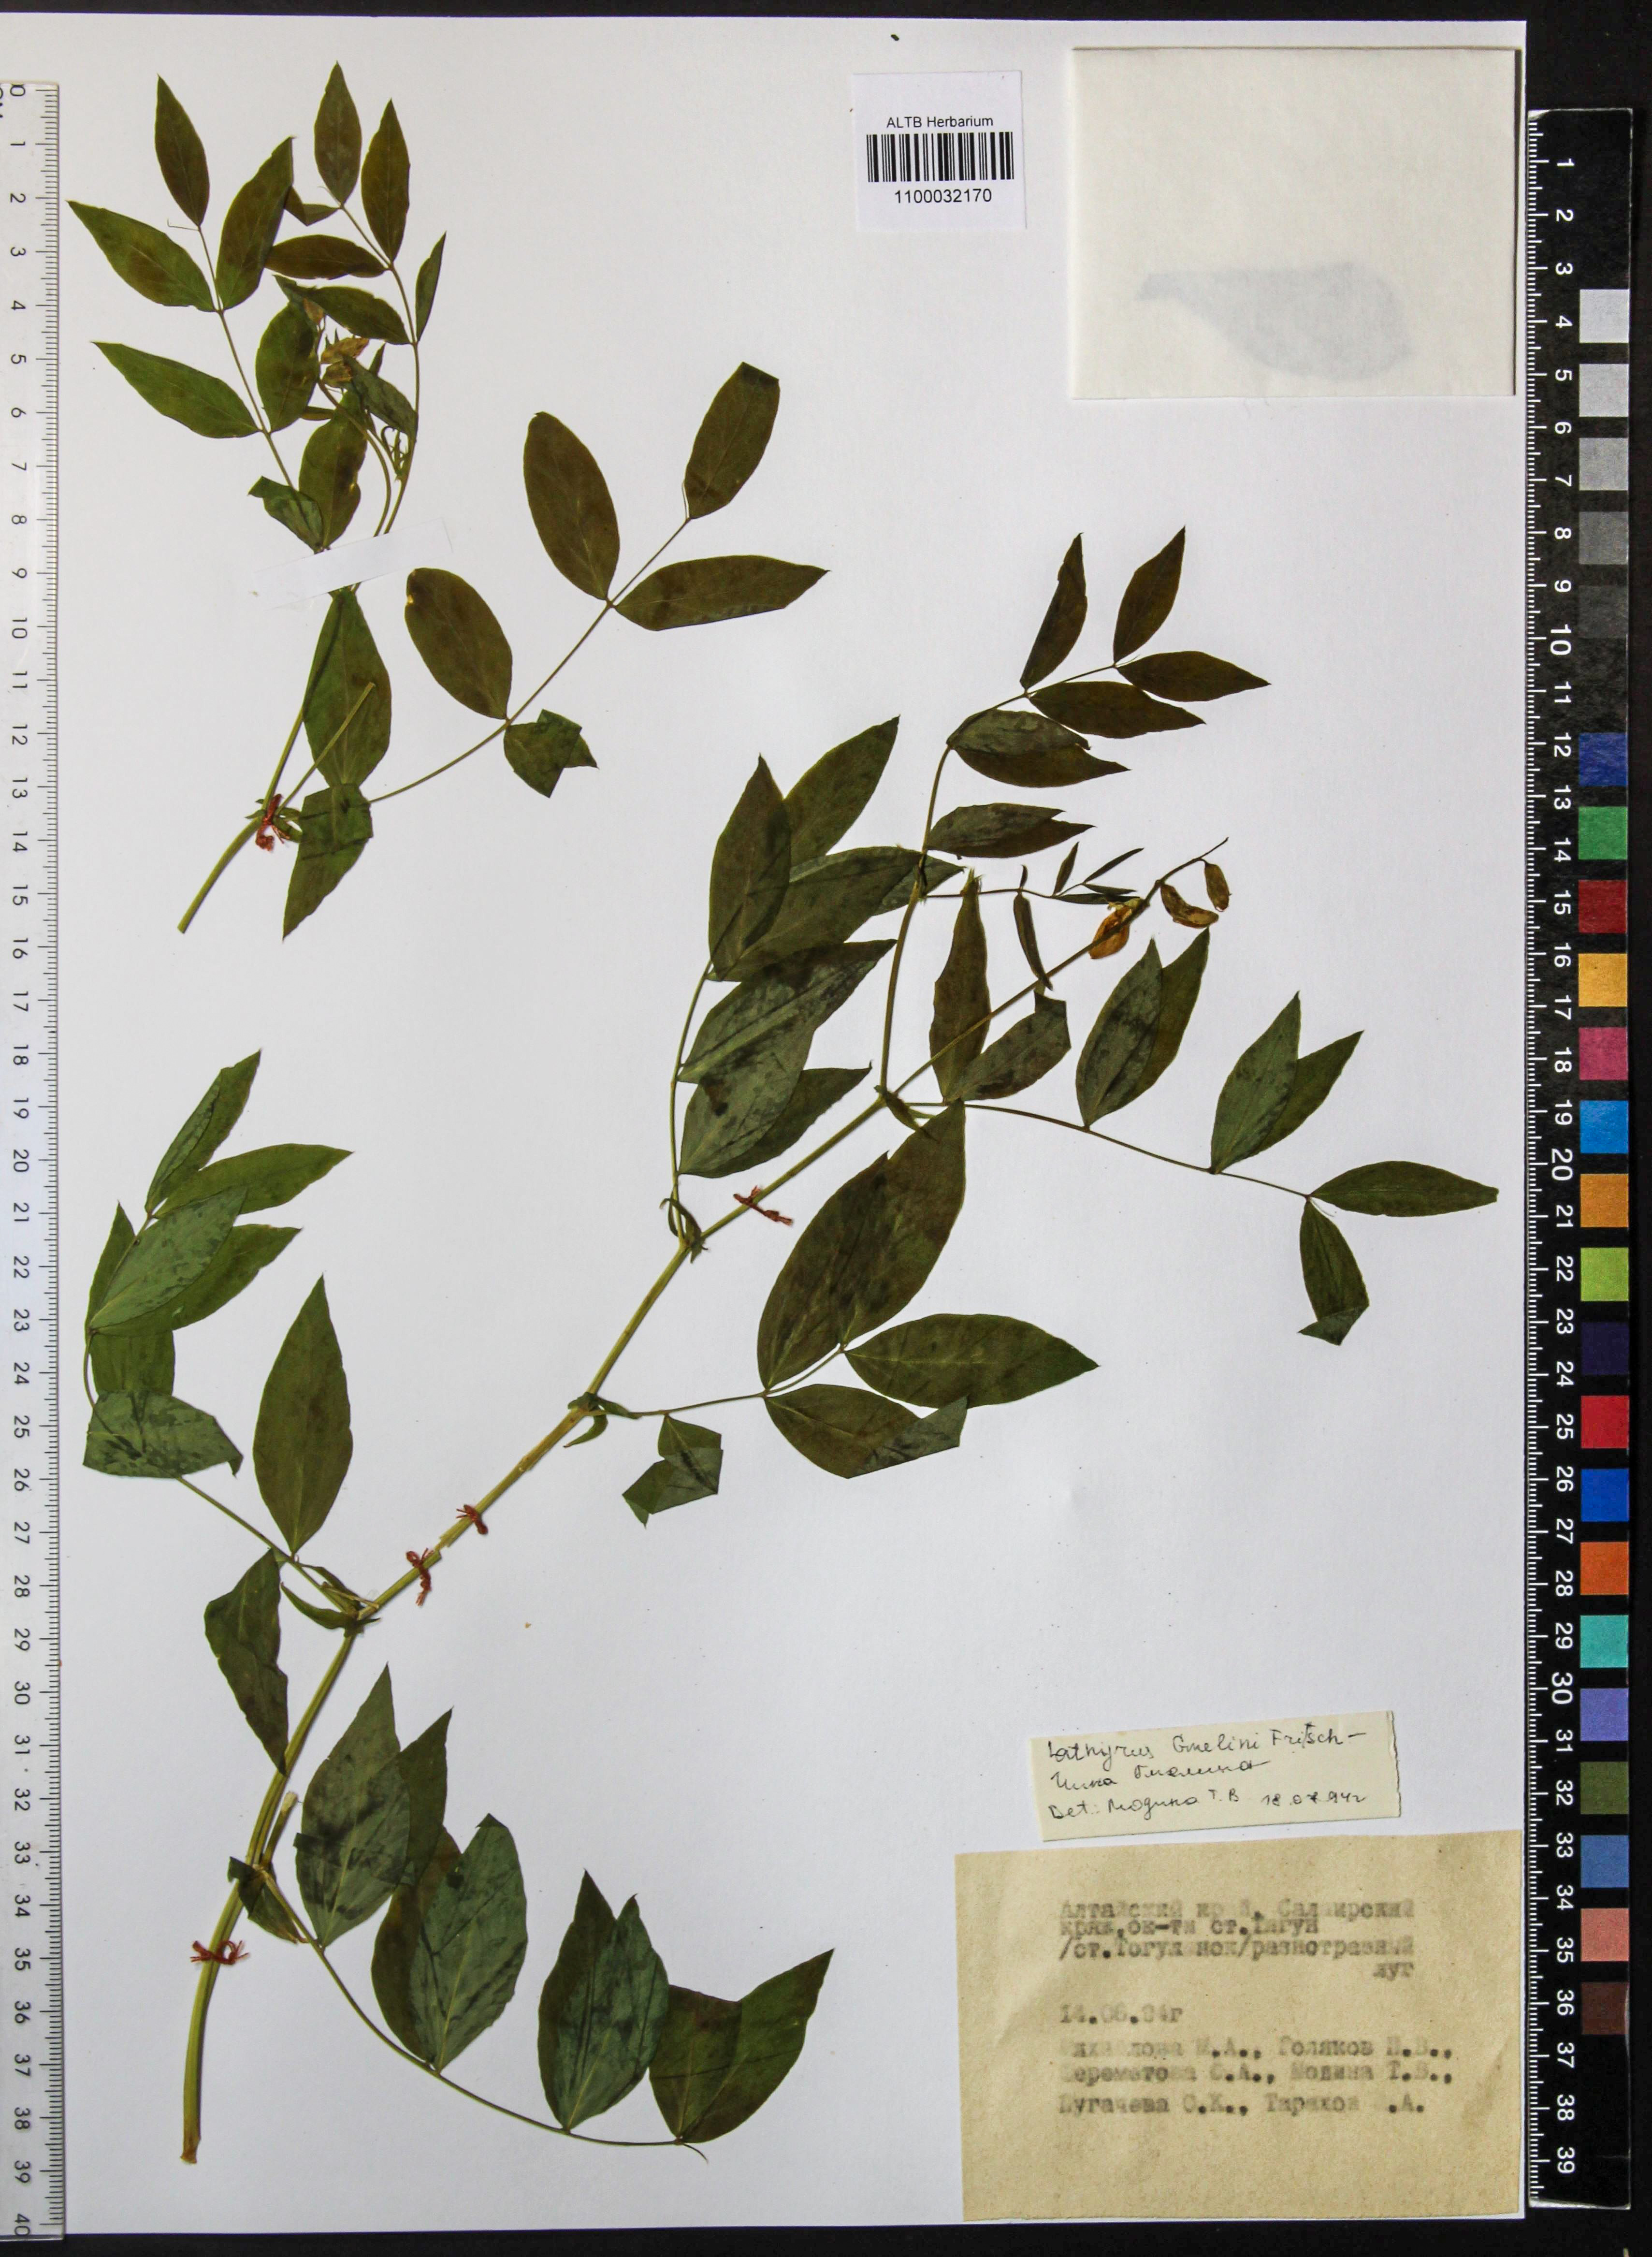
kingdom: Plantae
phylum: Tracheophyta
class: Magnoliopsida
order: Fabales
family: Fabaceae
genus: Lathyrus
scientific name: Lathyrus gmelinii
